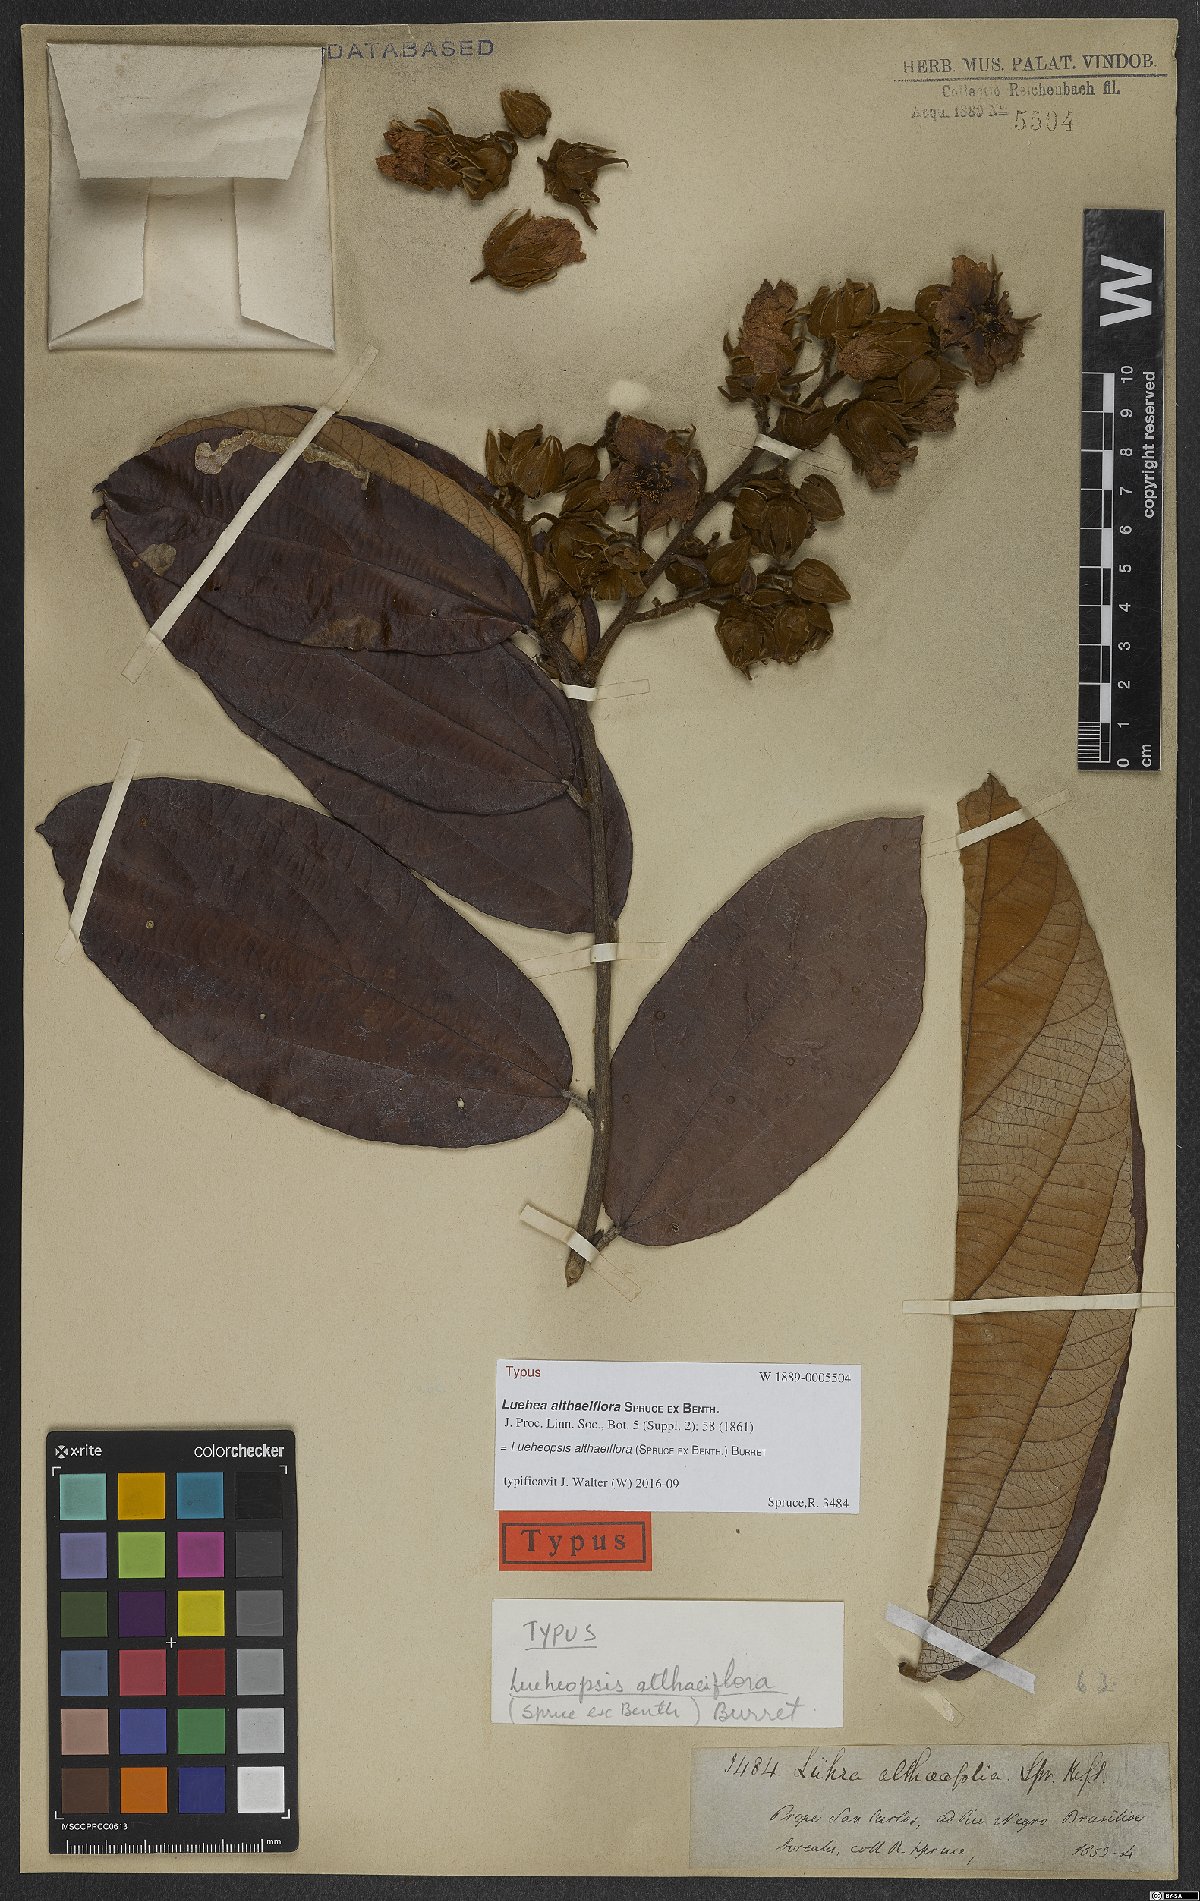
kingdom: Plantae
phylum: Tracheophyta
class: Magnoliopsida
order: Malvales
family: Malvaceae
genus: Lueheopsis
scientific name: Lueheopsis althaeiflora
